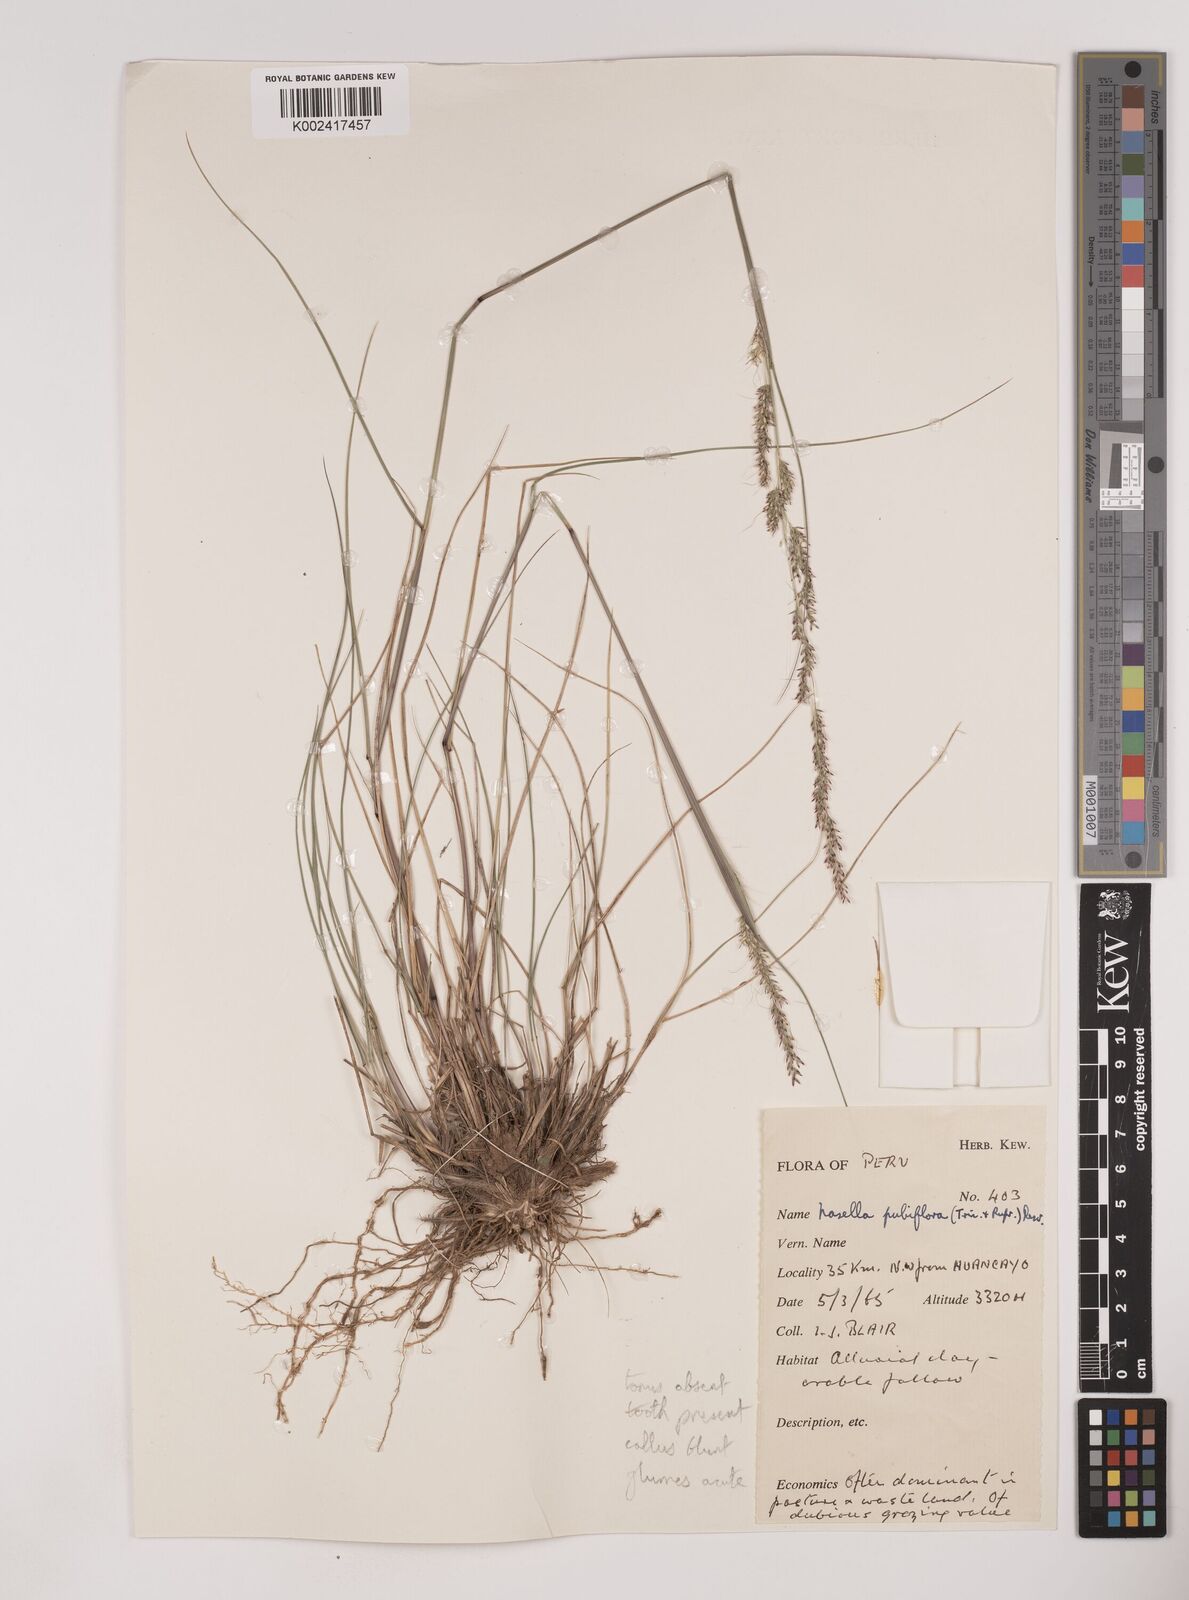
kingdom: Plantae
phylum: Tracheophyta
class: Liliopsida
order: Poales
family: Poaceae
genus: Nassella
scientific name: Nassella meyeniana
